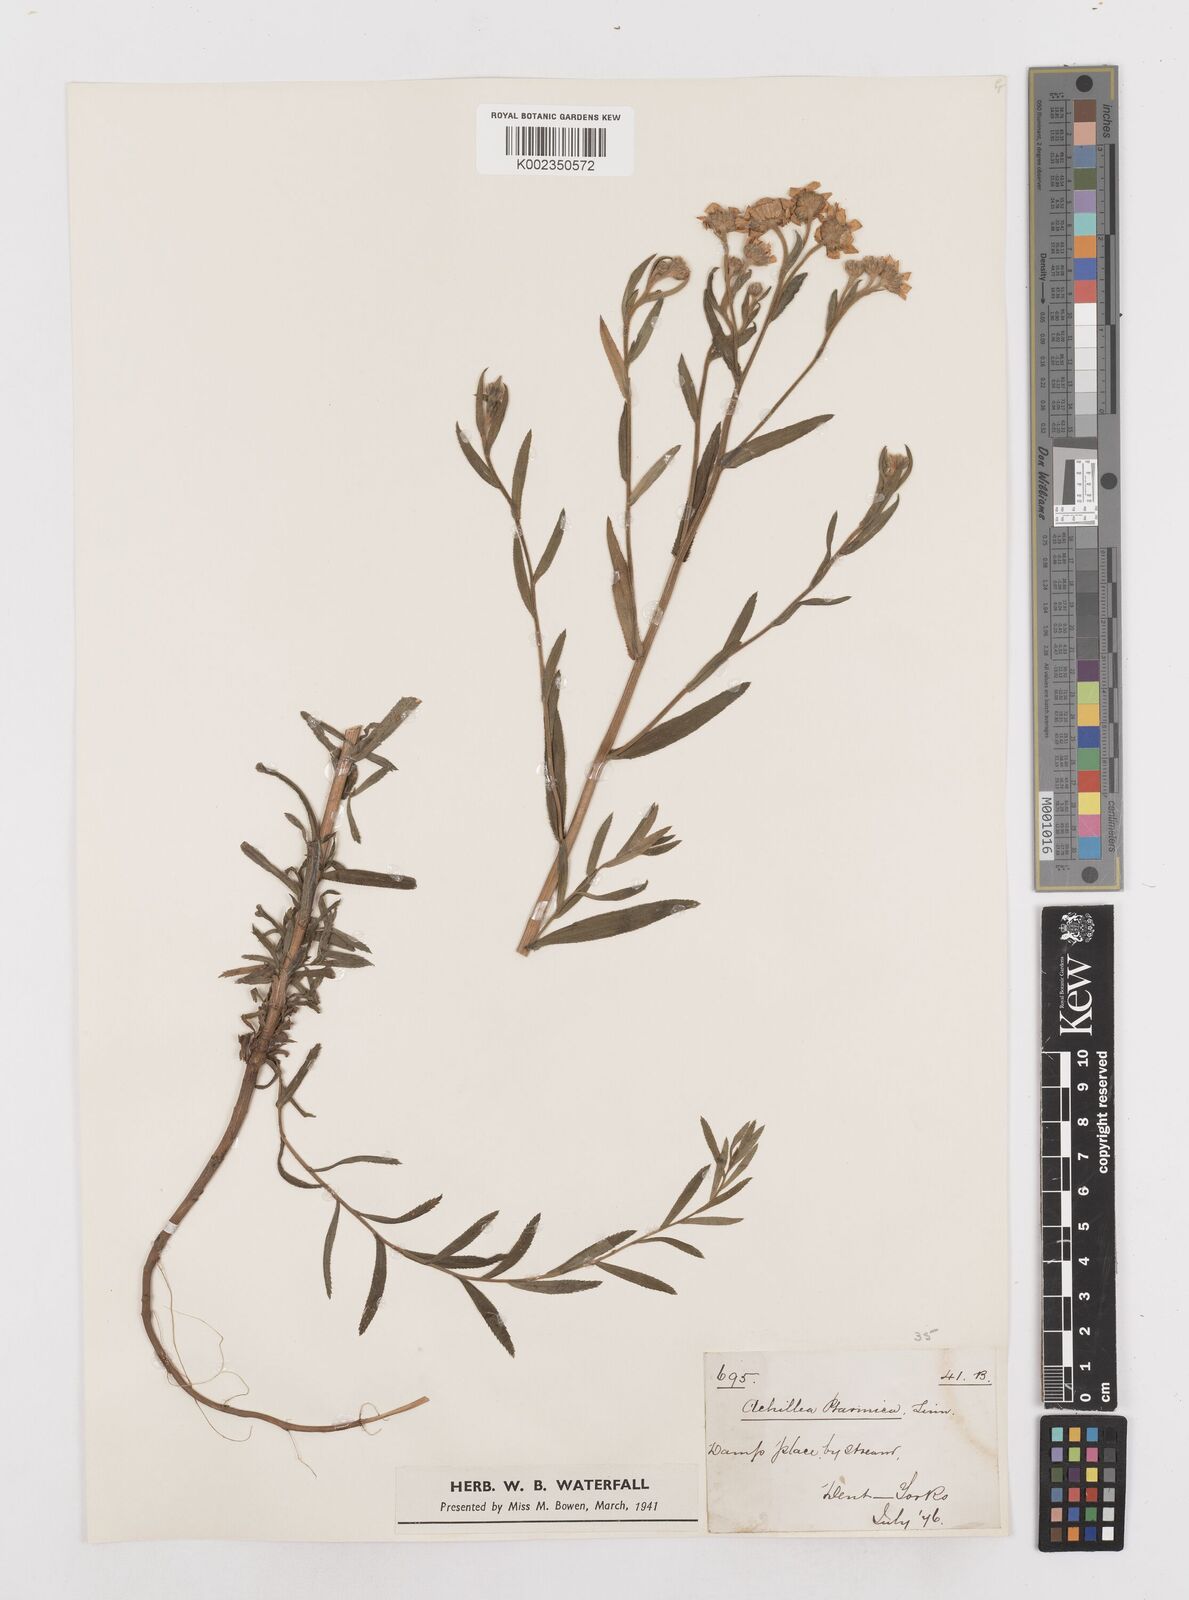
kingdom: Plantae
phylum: Tracheophyta
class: Magnoliopsida
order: Asterales
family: Asteraceae
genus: Achillea
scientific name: Achillea ptarmica
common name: Sneezeweed
